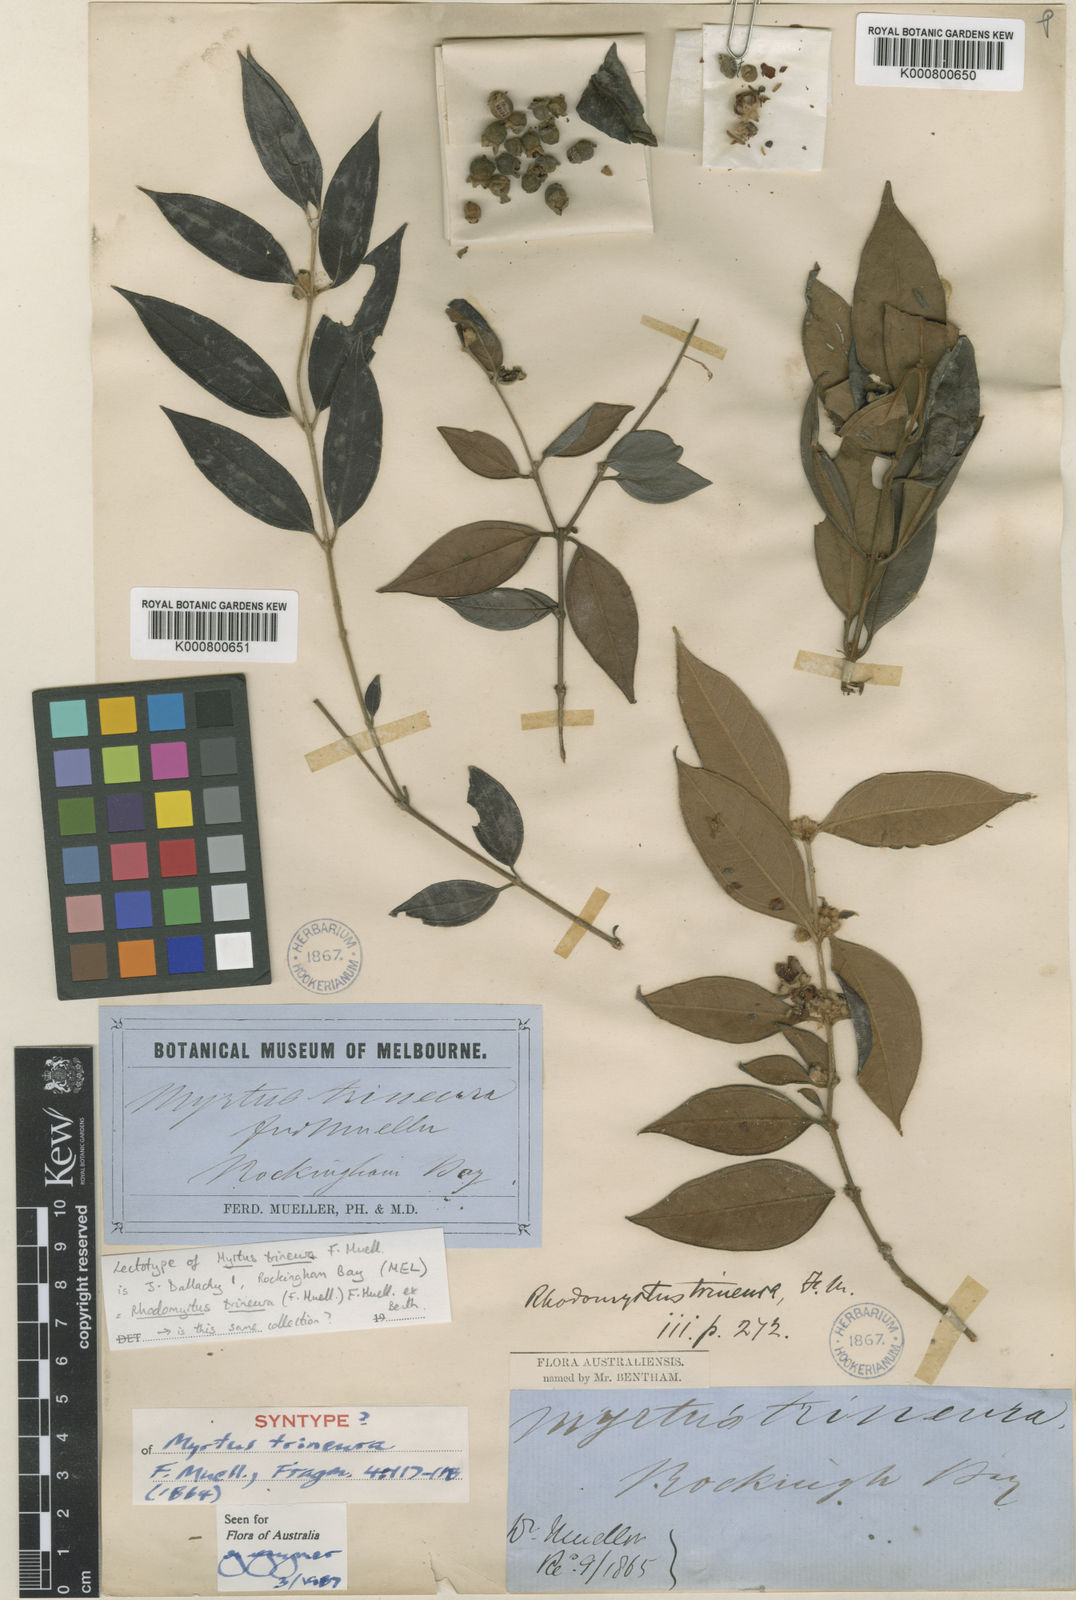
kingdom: Plantae
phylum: Tracheophyta
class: Magnoliopsida
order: Myrtales
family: Myrtaceae
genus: Rhodomyrtus
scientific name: Rhodomyrtus trineura
